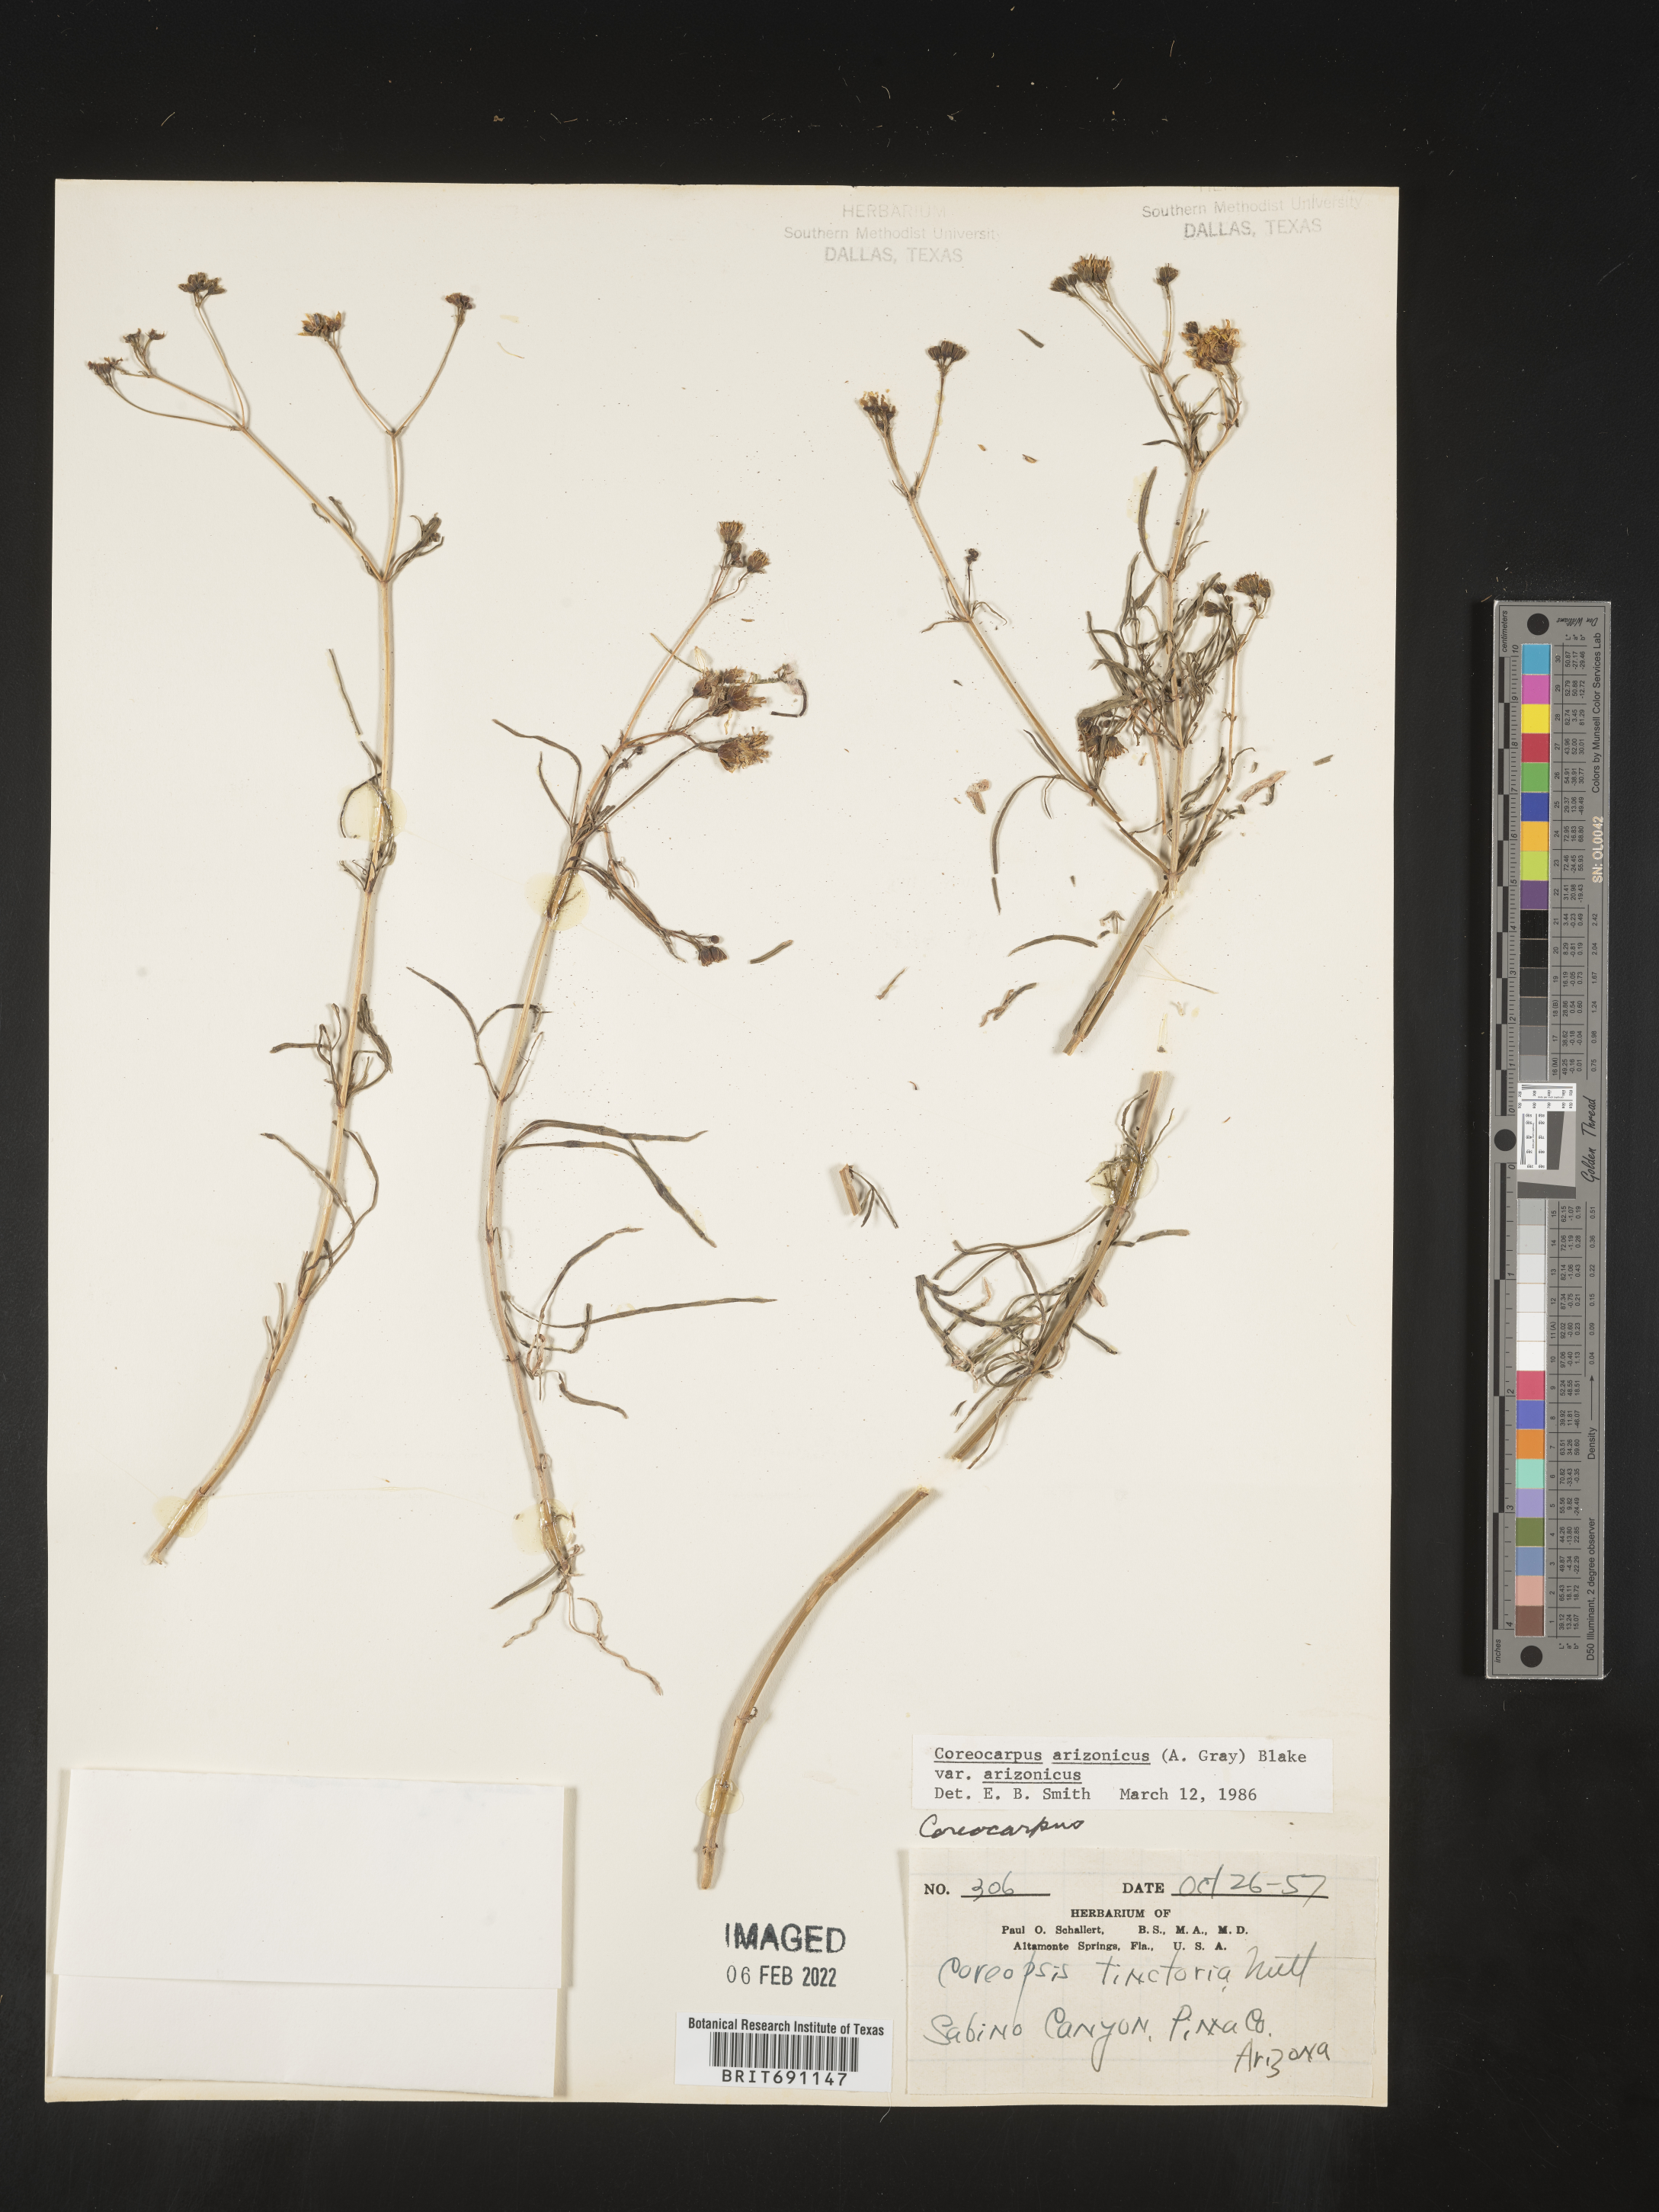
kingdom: Plantae
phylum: Tracheophyta
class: Magnoliopsida
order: Asterales
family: Asteraceae
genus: Coreocarpus
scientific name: Coreocarpus
